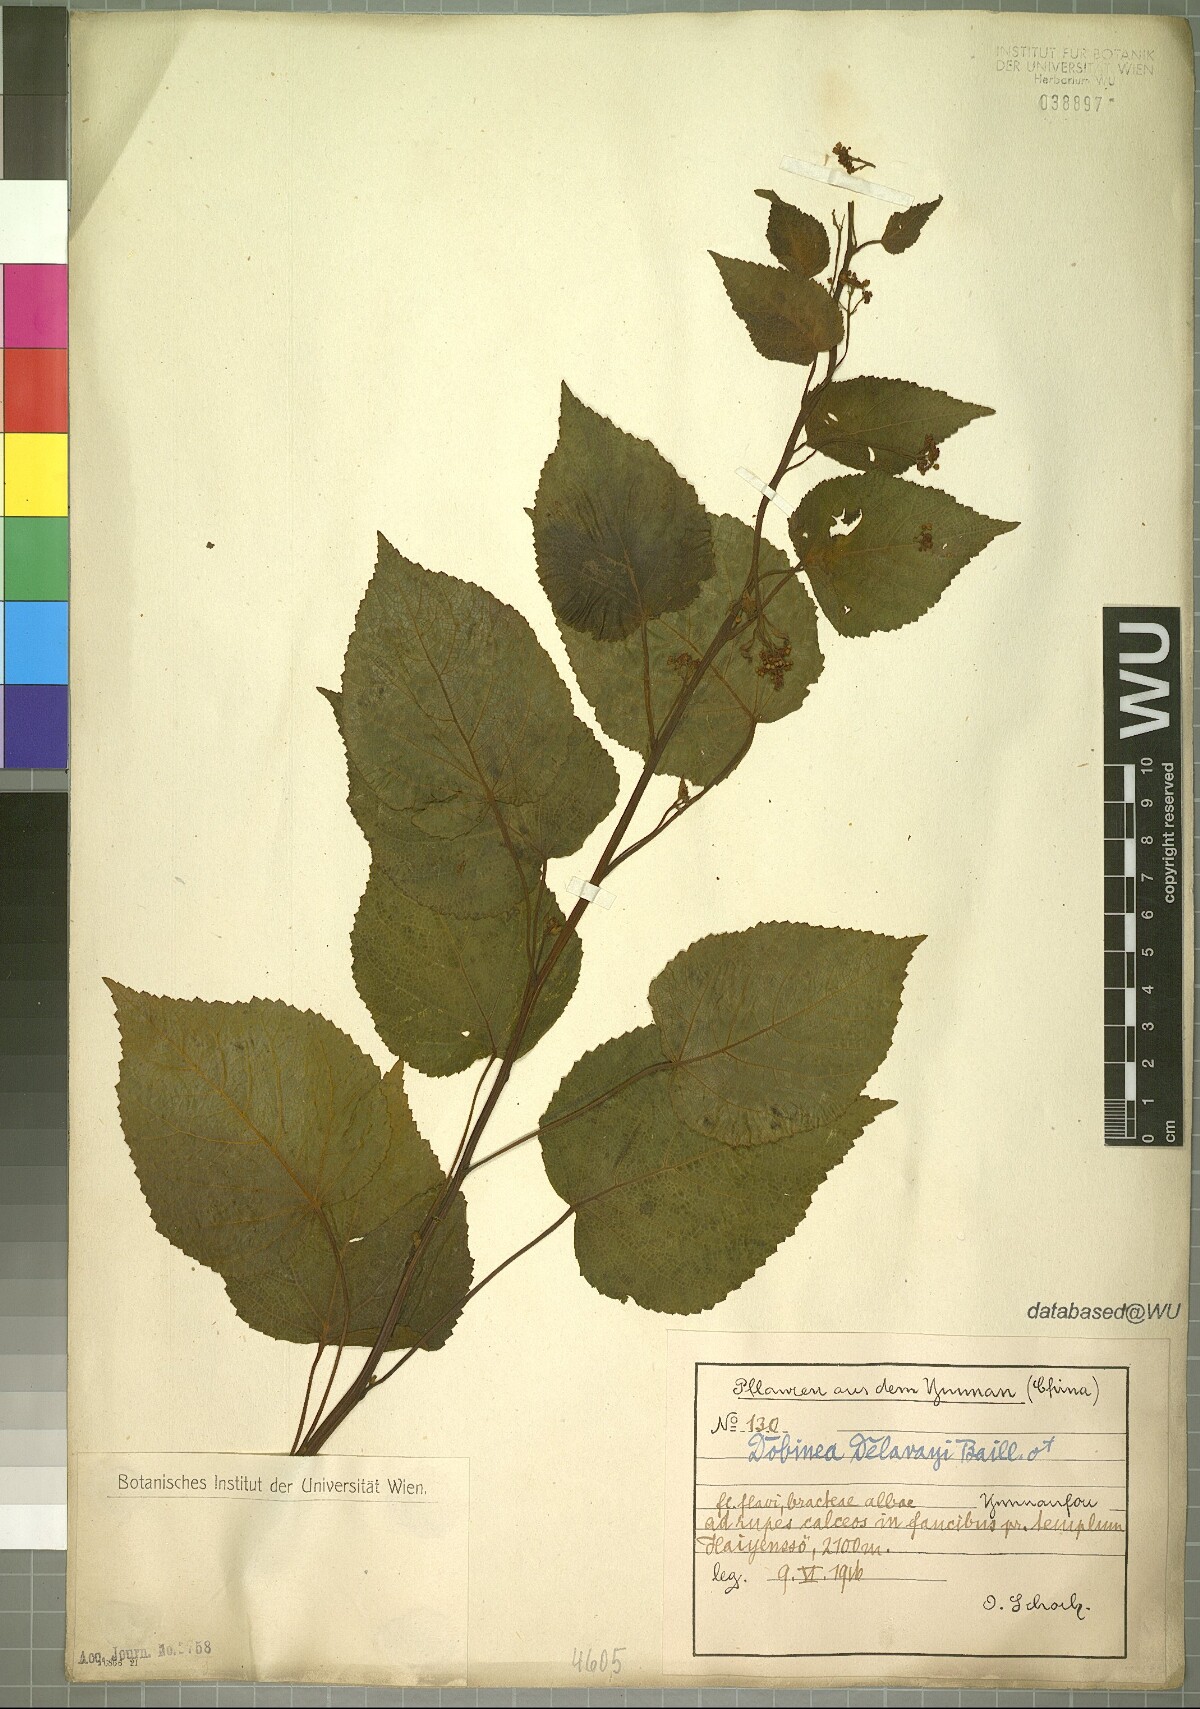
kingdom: Plantae
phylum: Tracheophyta
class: Magnoliopsida
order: Sapindales
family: Anacardiaceae
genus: Dobinea
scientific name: Dobinea delavayi
